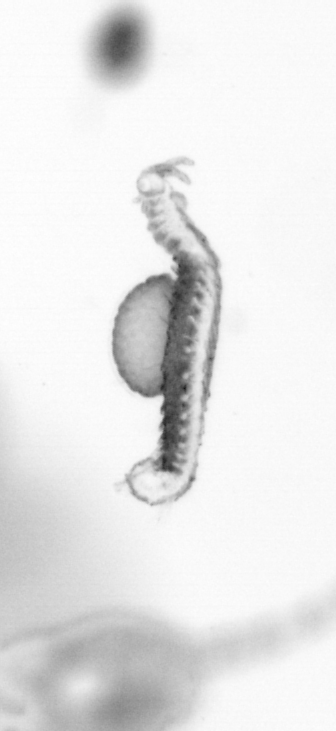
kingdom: Animalia
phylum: Annelida
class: Polychaeta
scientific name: Polychaeta
